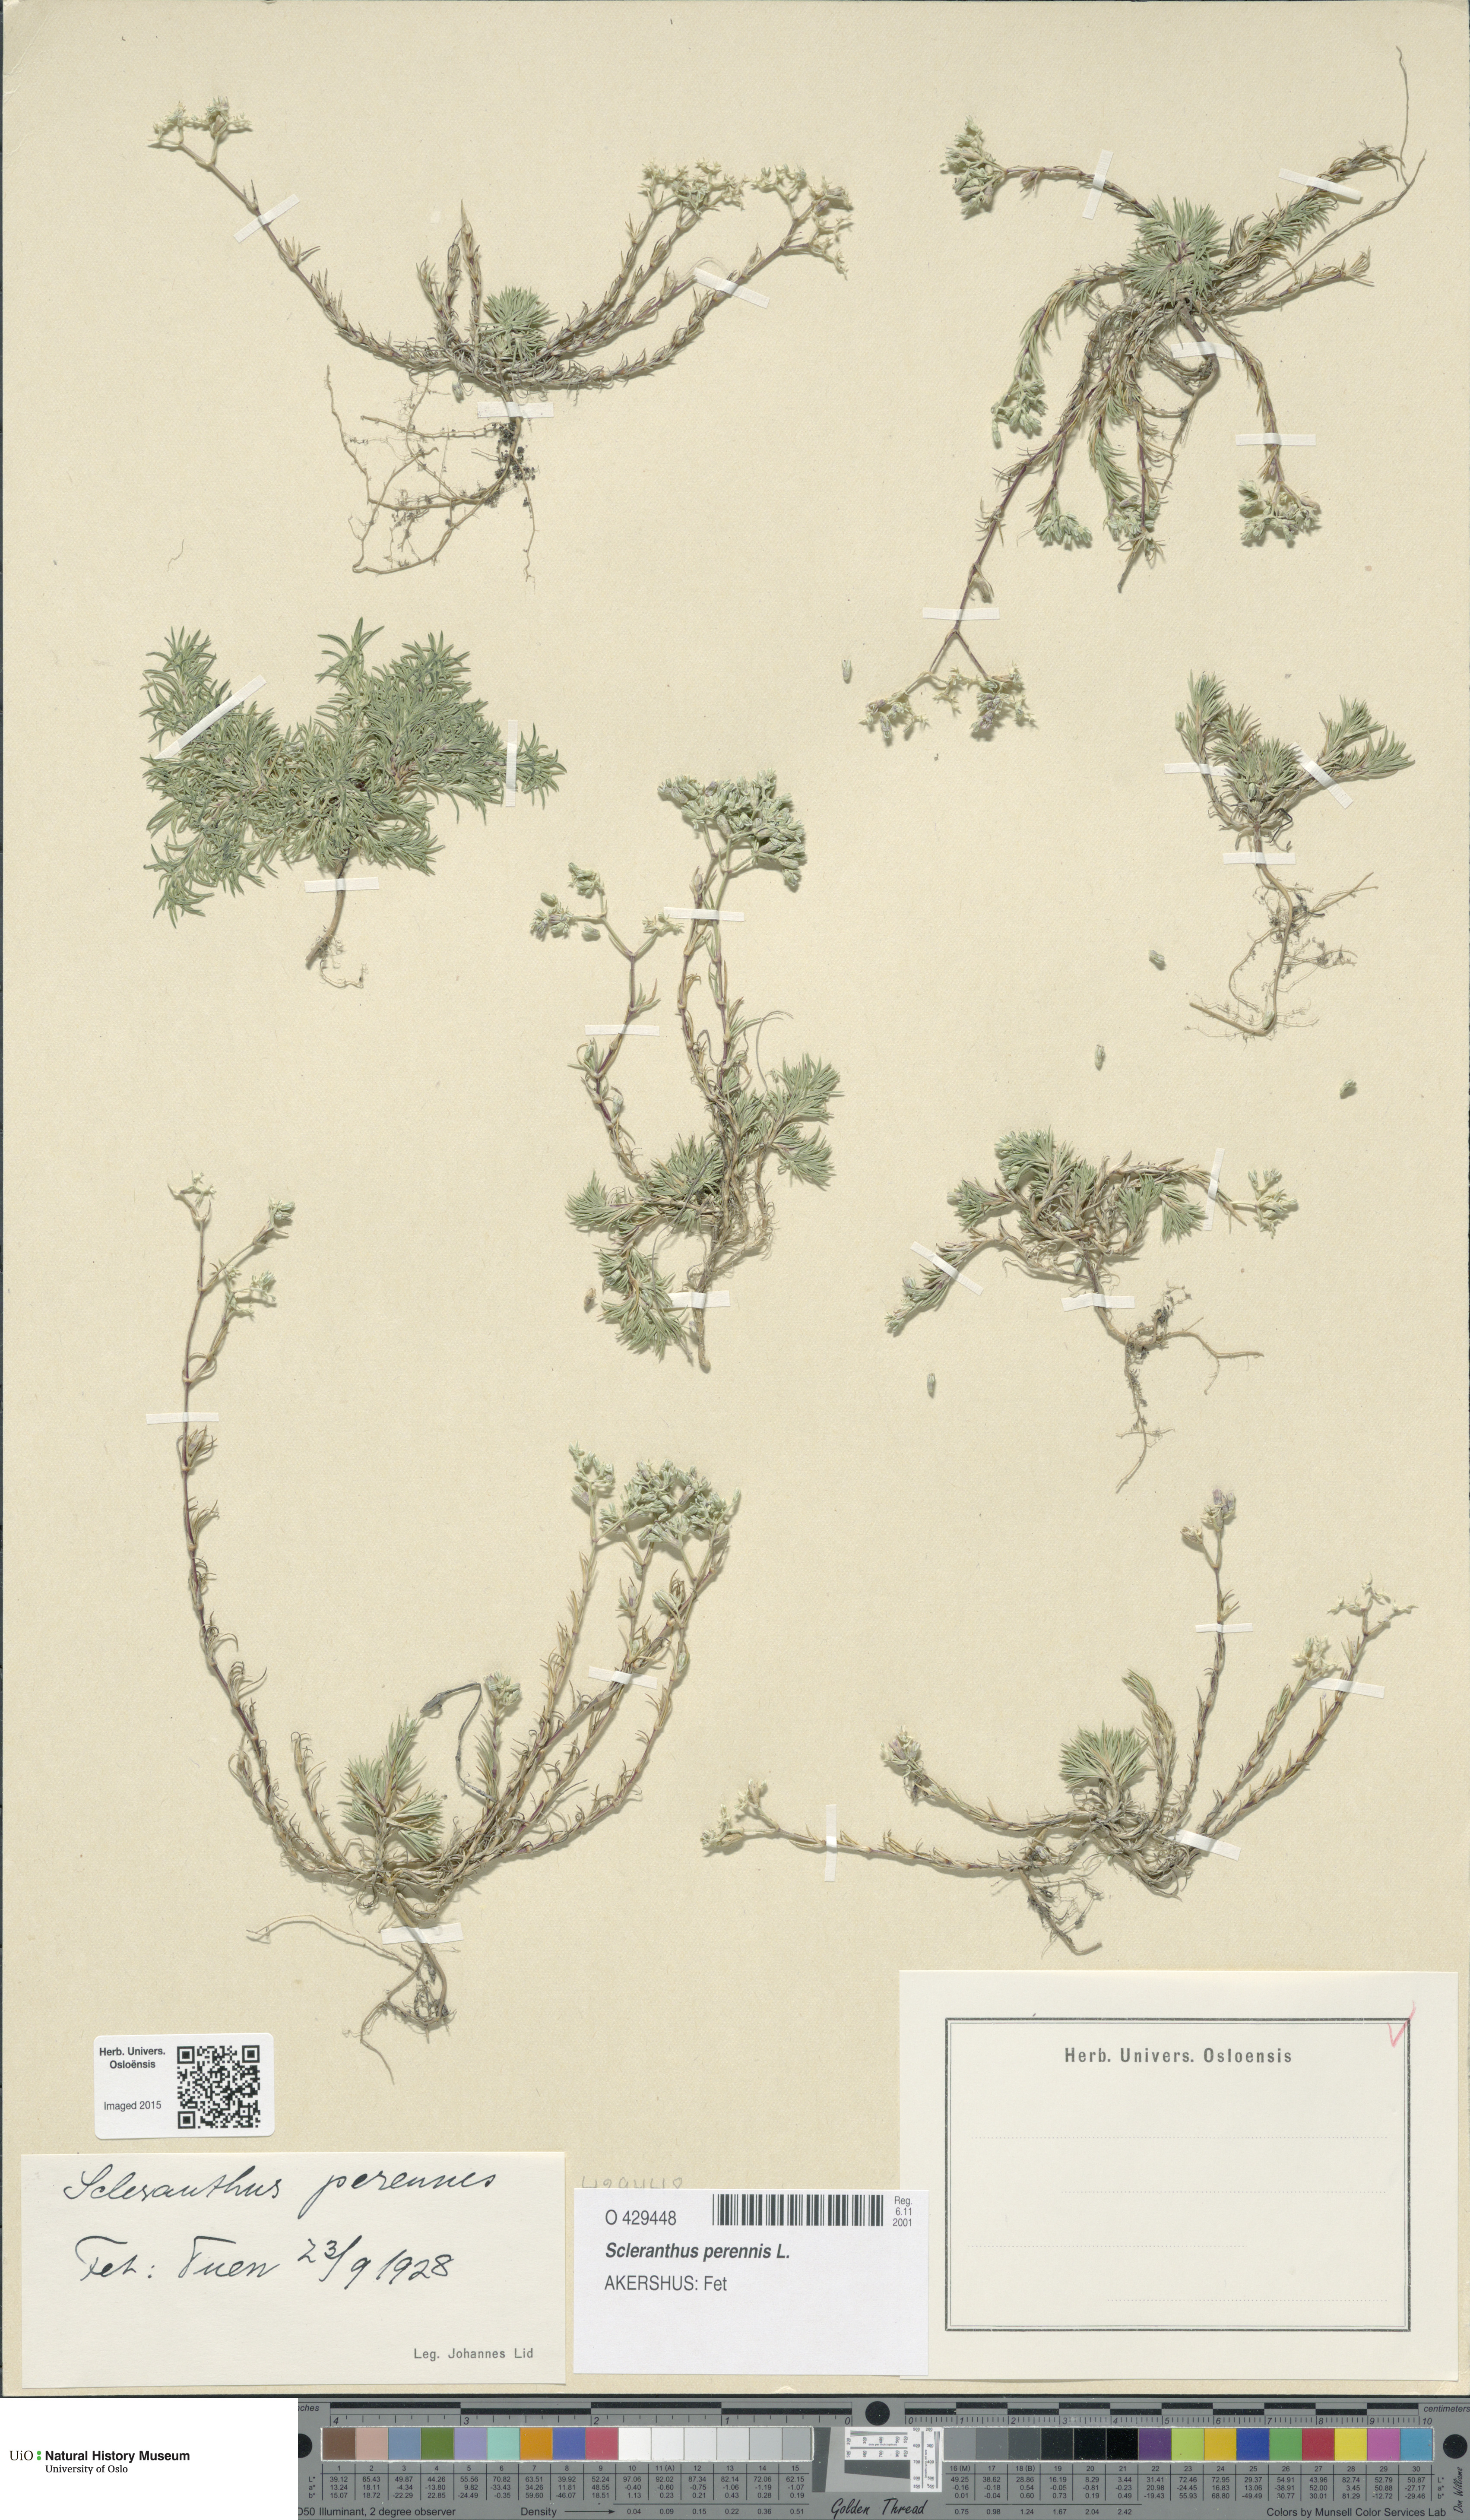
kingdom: Plantae
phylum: Tracheophyta
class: Magnoliopsida
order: Caryophyllales
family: Caryophyllaceae
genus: Scleranthus
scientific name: Scleranthus perennis
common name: Perennial knawel
